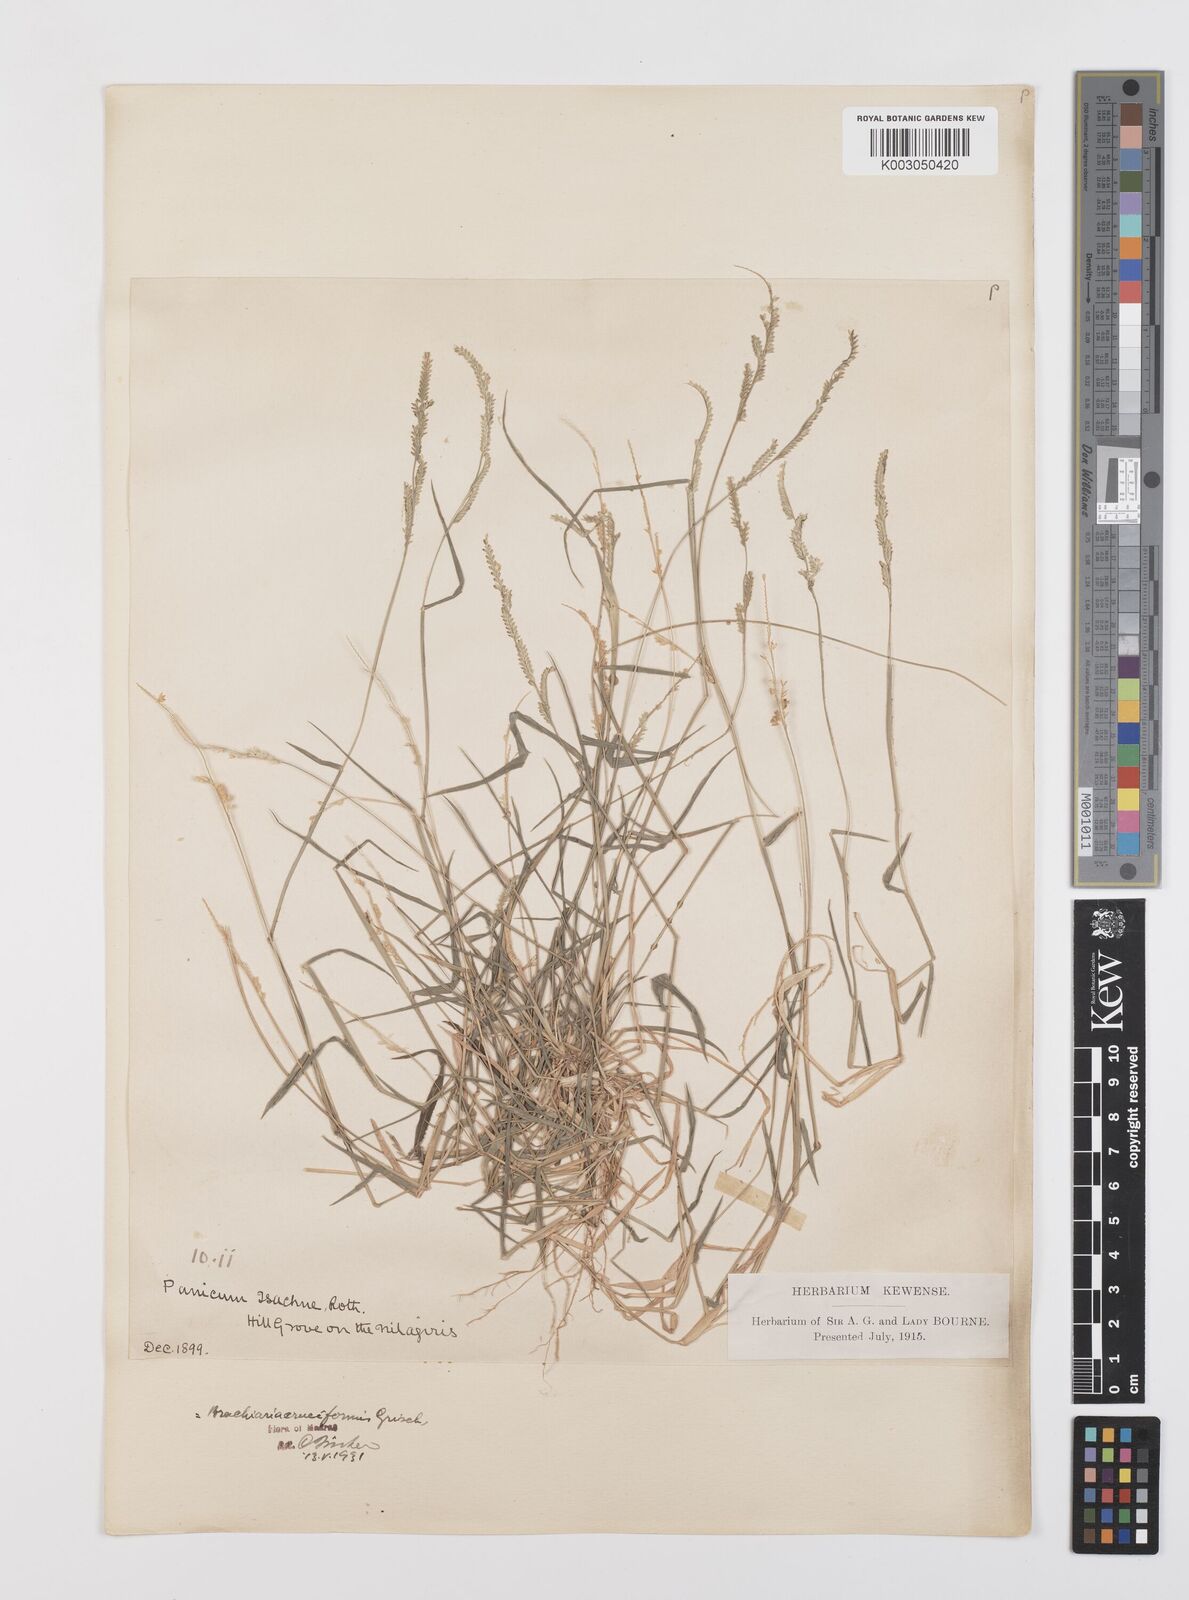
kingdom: Plantae
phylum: Tracheophyta
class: Liliopsida
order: Poales
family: Poaceae
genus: Moorochloa
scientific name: Moorochloa eruciformis
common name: Sweet signalgrass
